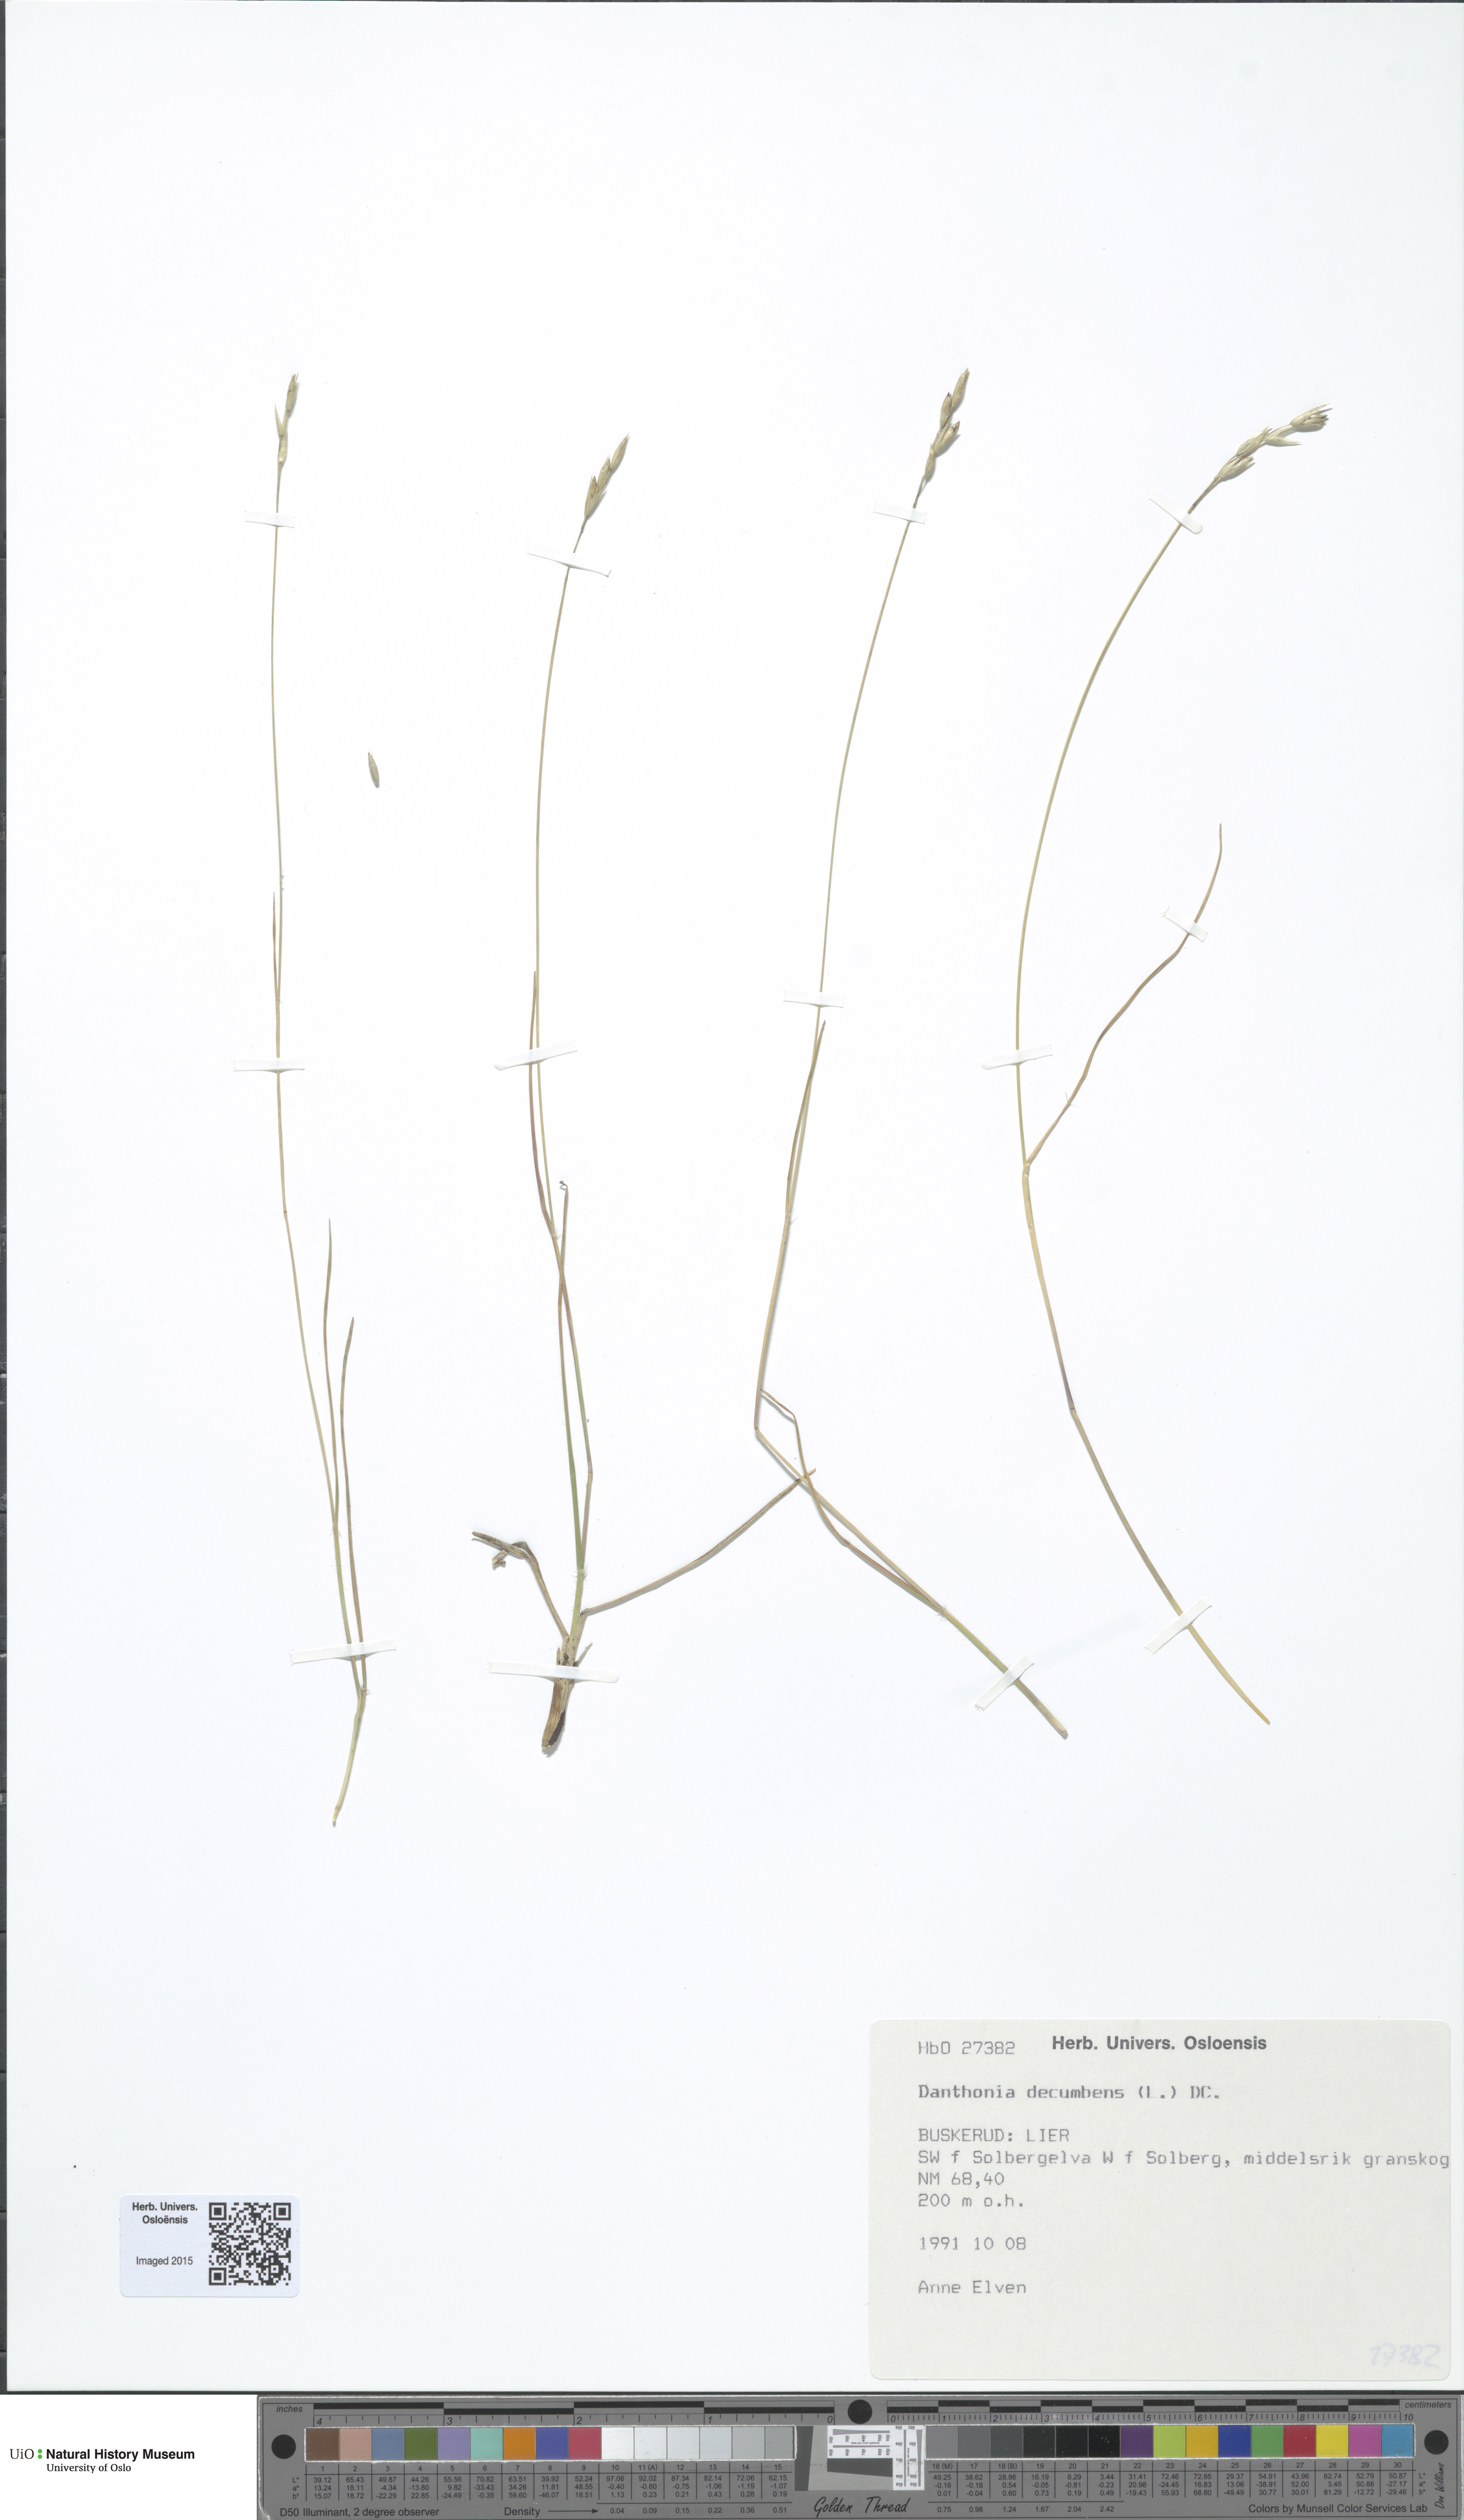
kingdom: Plantae
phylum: Tracheophyta
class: Liliopsida
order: Poales
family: Poaceae
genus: Danthonia
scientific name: Danthonia decumbens
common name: Common heathgrass
